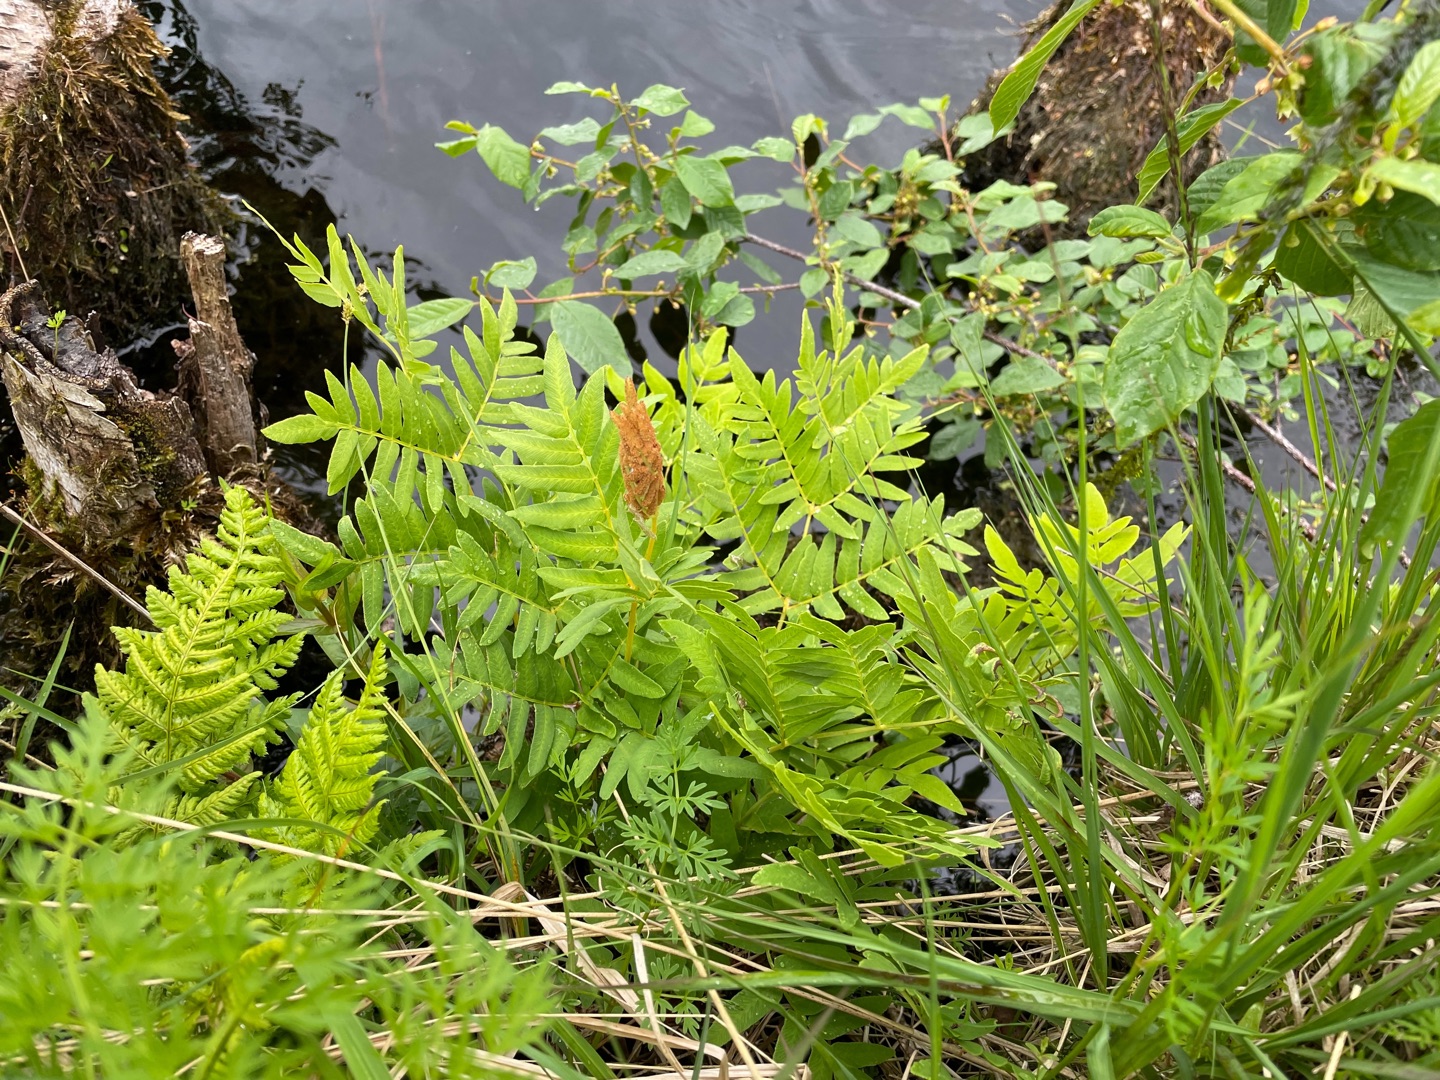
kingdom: Plantae
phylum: Tracheophyta
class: Polypodiopsida
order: Osmundales
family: Osmundaceae
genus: Osmunda
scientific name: Osmunda regalis
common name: Kongebregne
